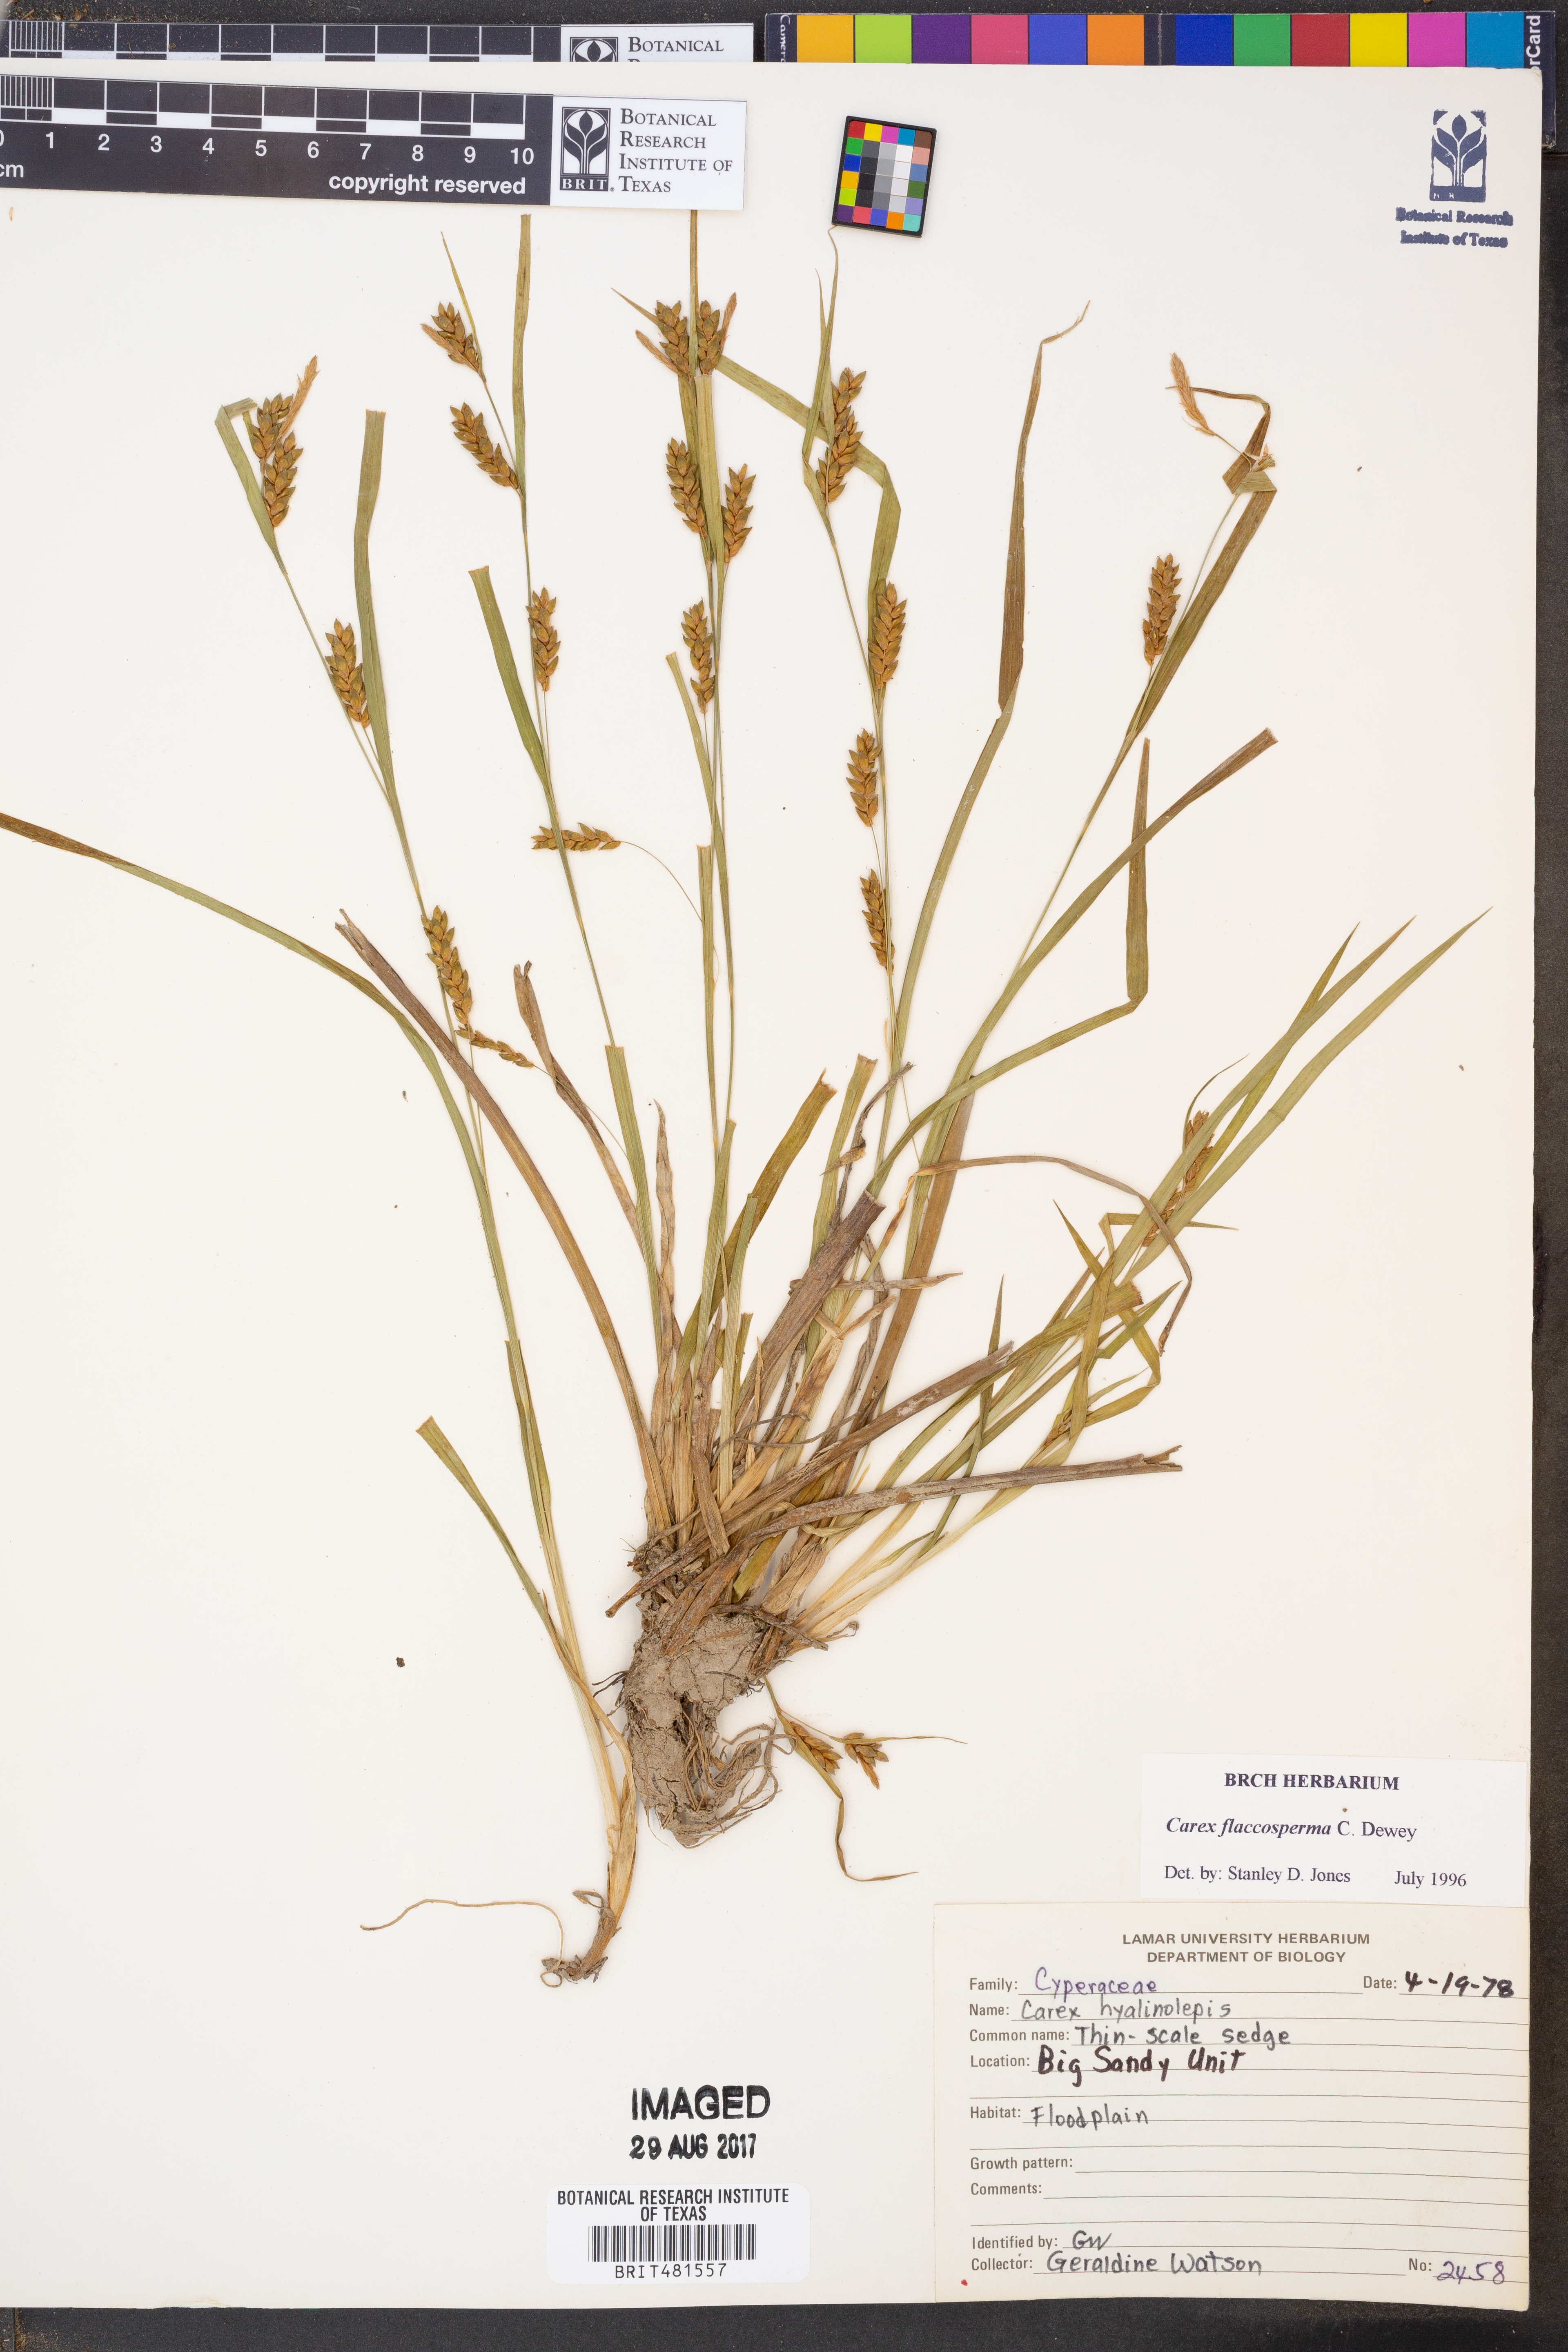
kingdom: Plantae
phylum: Tracheophyta
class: Liliopsida
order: Poales
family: Cyperaceae
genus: Carex
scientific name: Carex flaccosperma
